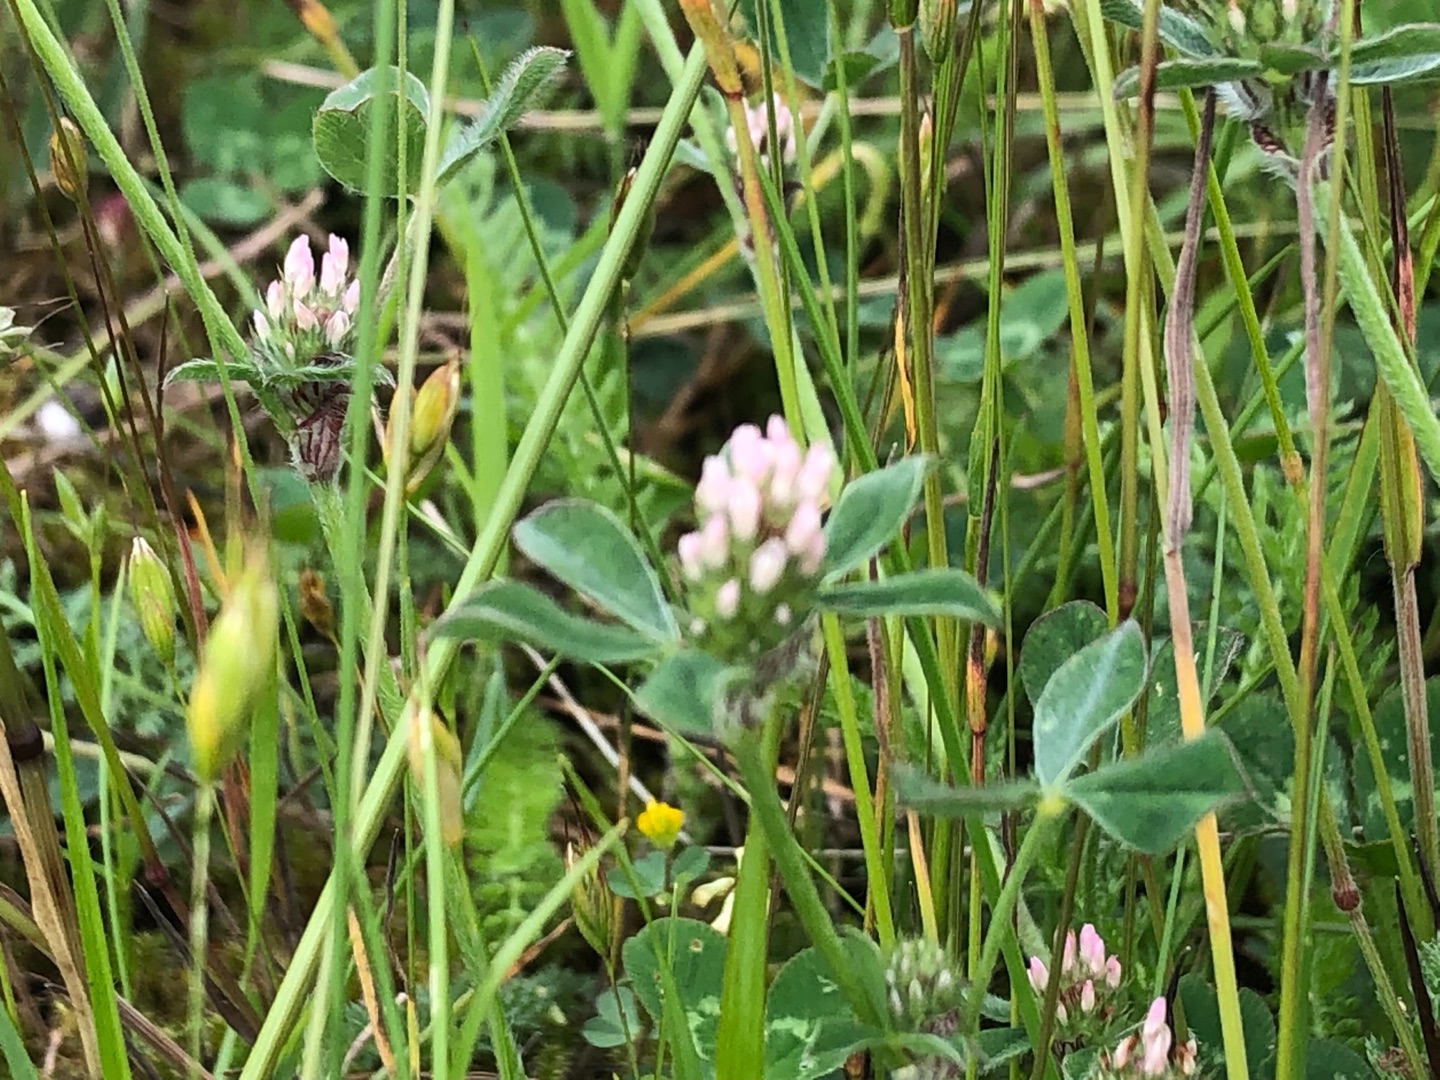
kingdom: Plantae
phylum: Tracheophyta
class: Magnoliopsida
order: Fabales
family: Fabaceae
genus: Trifolium
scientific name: Trifolium striatum
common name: Stribet kløver
